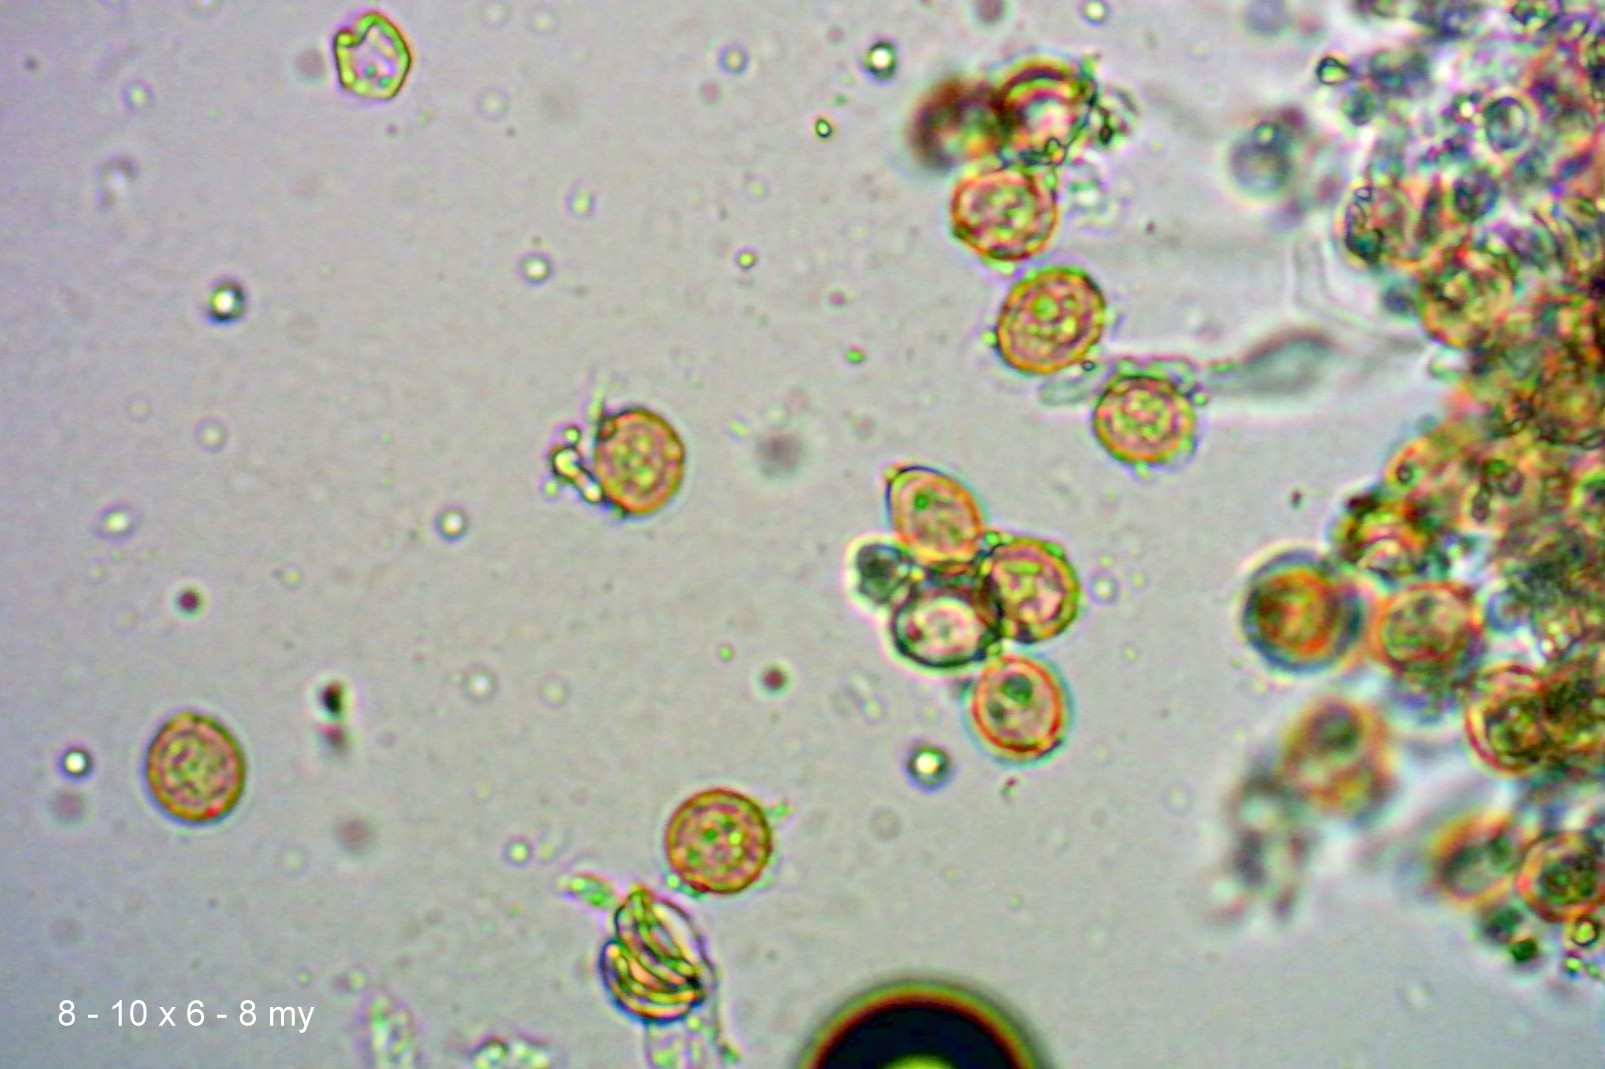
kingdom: Fungi
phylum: Basidiomycota
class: Agaricomycetes
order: Agaricales
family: Chromocyphellaceae
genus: Chromocyphella
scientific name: Chromocyphella muscicola
